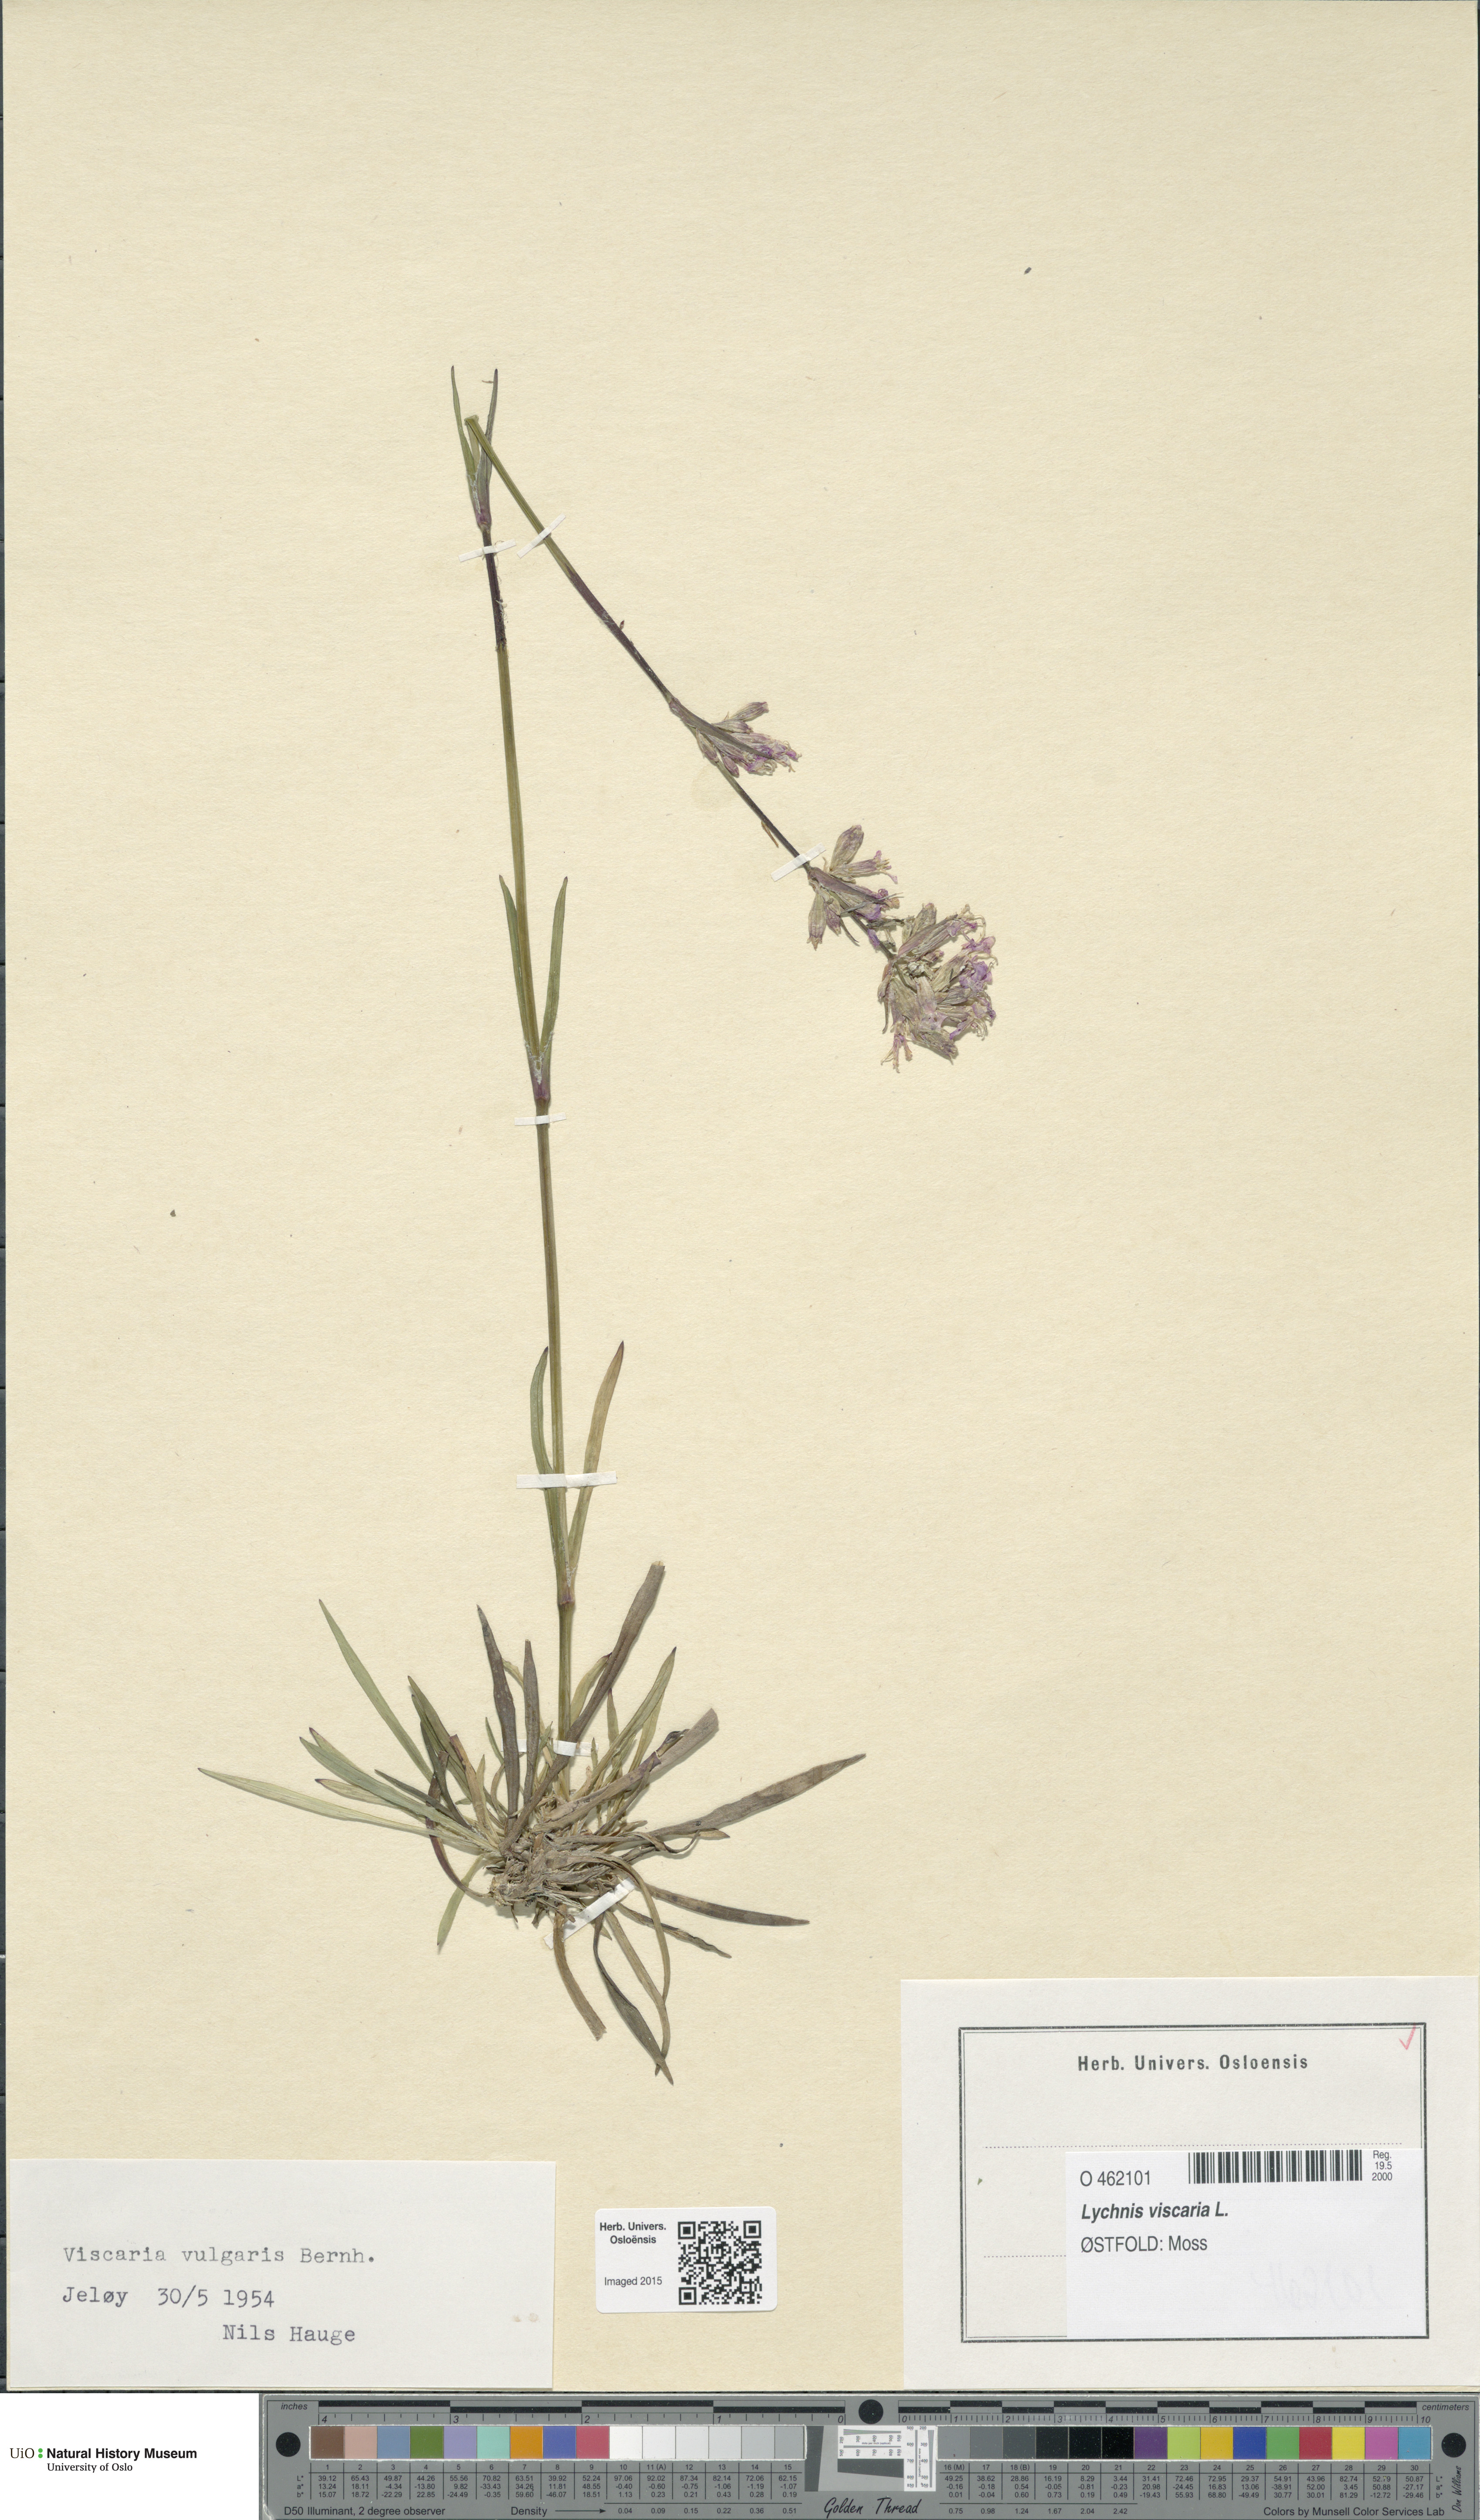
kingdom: Plantae
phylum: Tracheophyta
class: Magnoliopsida
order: Caryophyllales
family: Caryophyllaceae
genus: Viscaria
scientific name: Viscaria vulgaris
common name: Clammy campion
